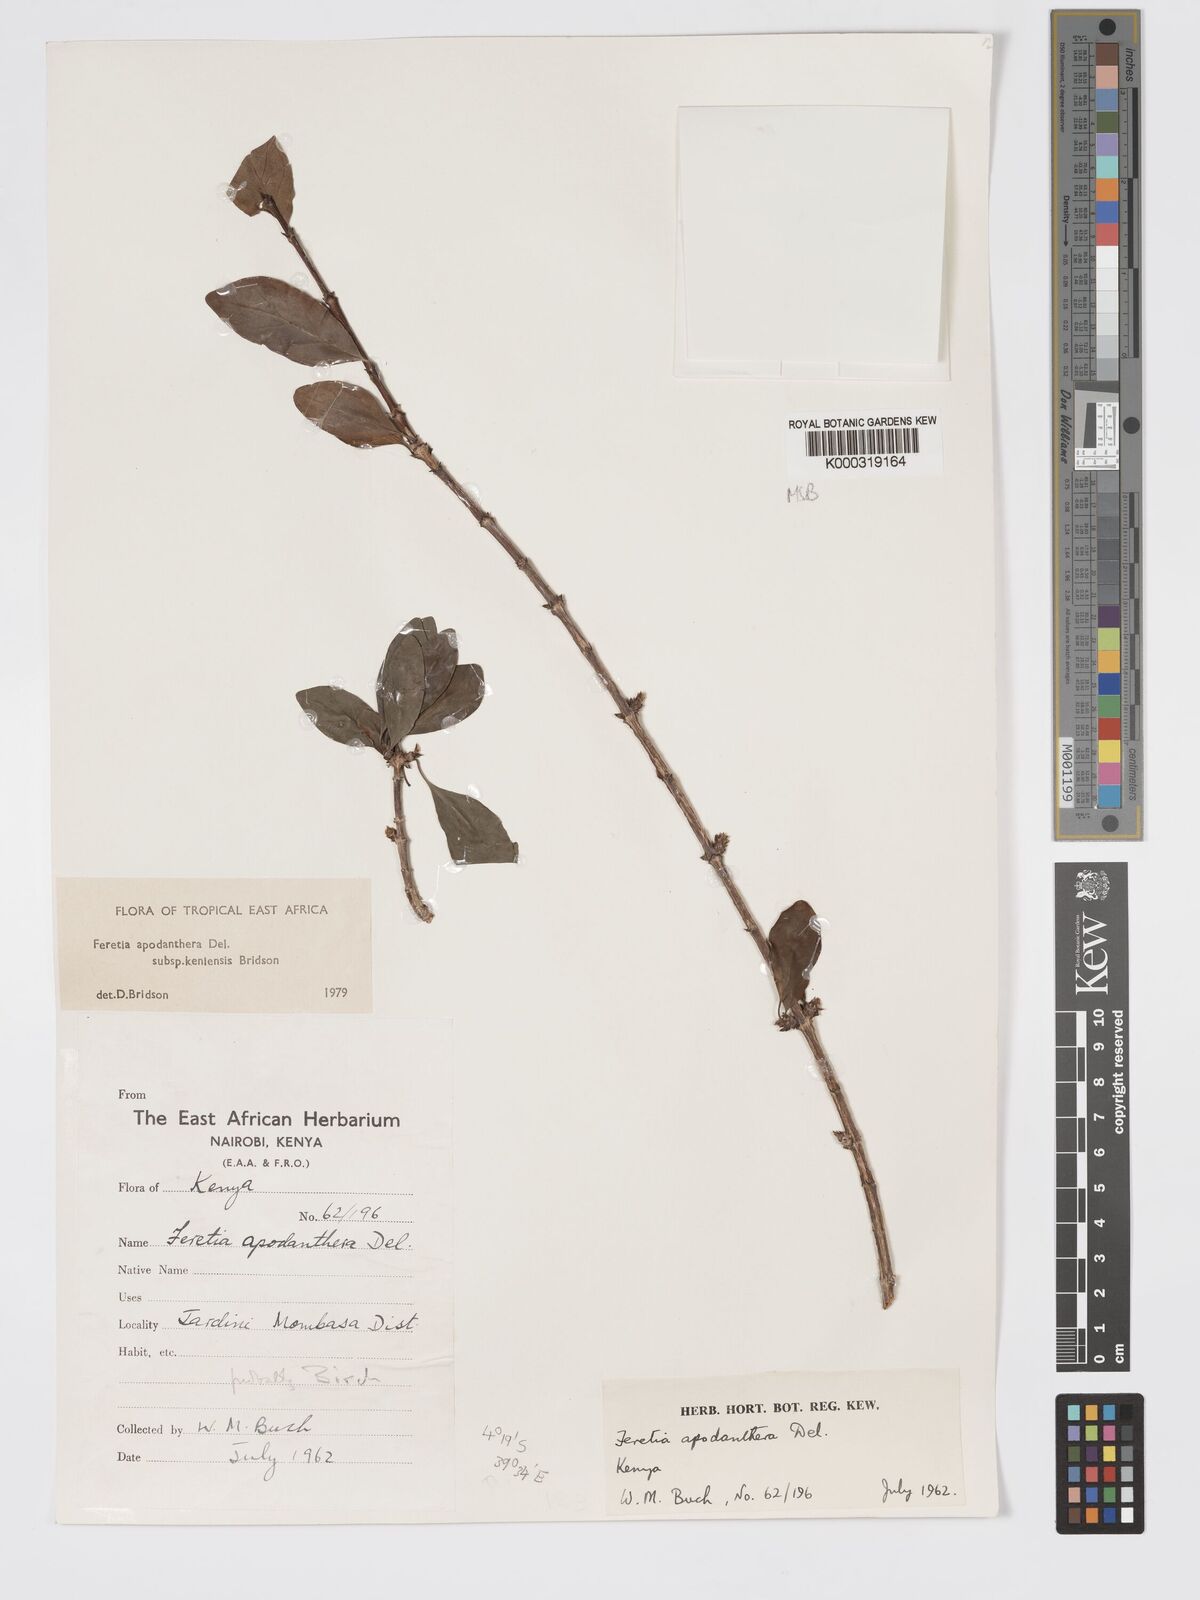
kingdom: Plantae
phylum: Tracheophyta
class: Magnoliopsida
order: Gentianales
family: Rubiaceae
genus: Feretia
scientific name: Feretia apodanthera
